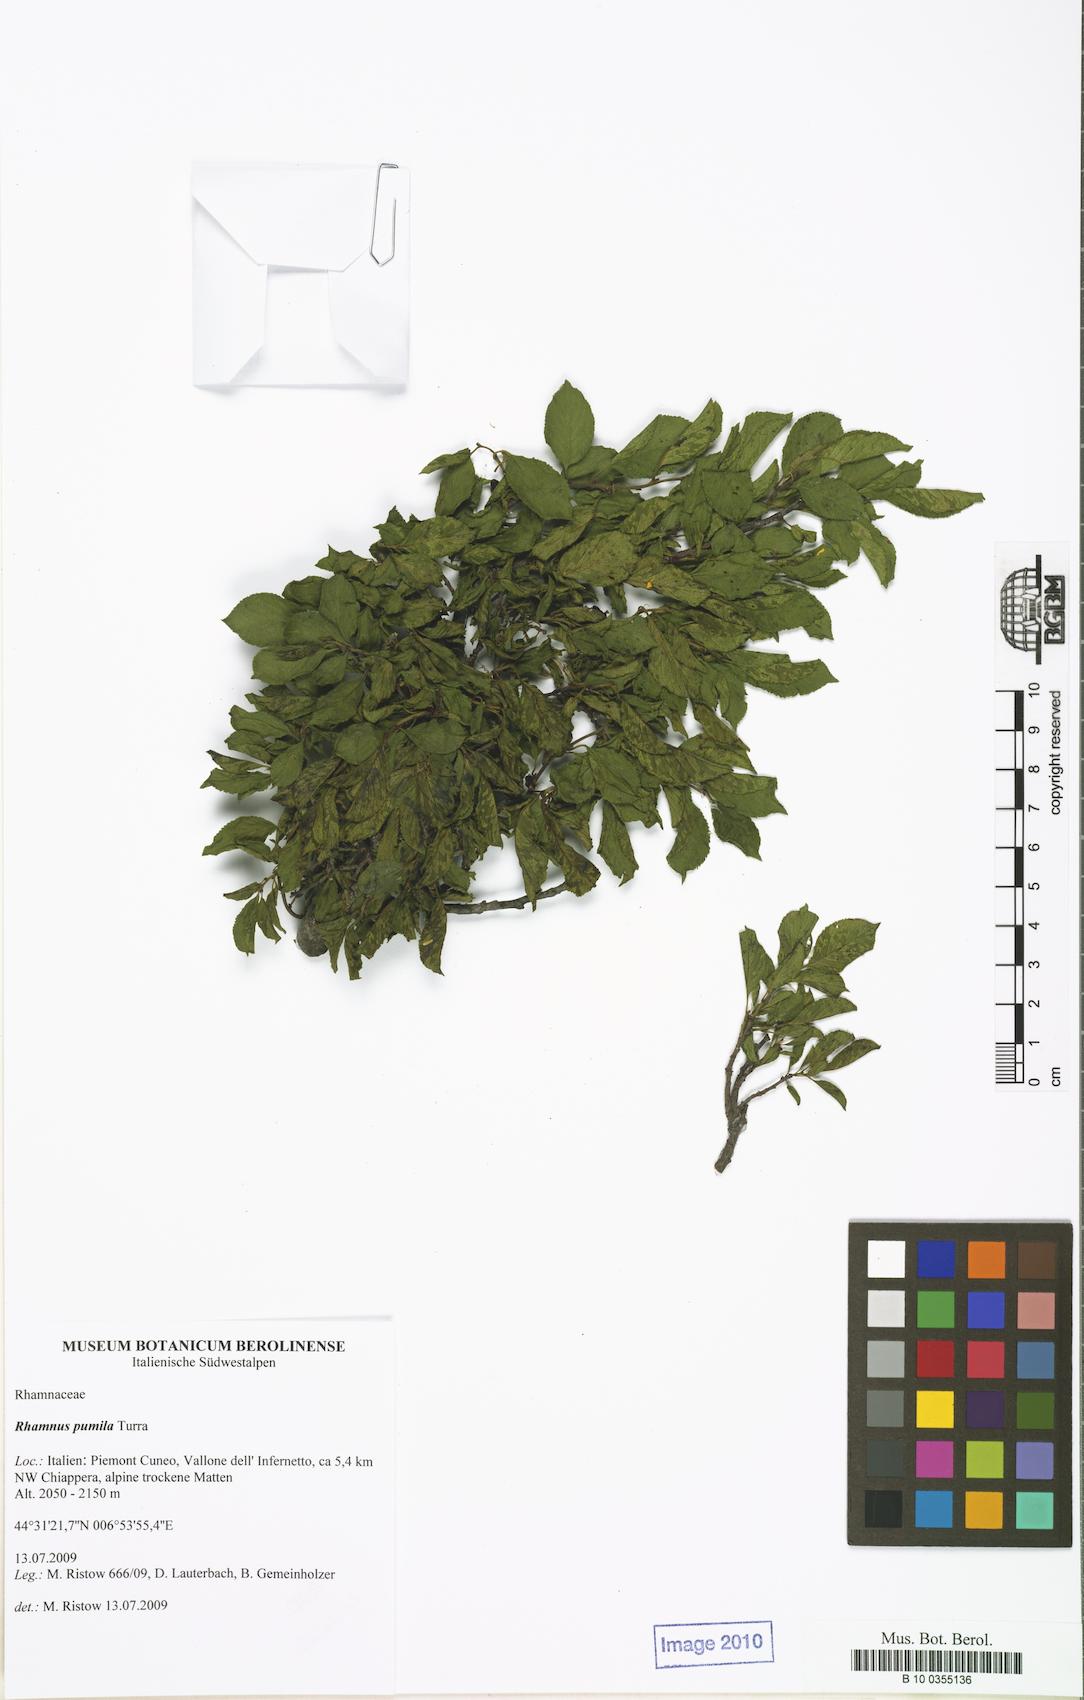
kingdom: Plantae
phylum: Tracheophyta
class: Magnoliopsida
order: Rosales
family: Rhamnaceae
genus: Atadinus
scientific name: Atadinus pumilus
